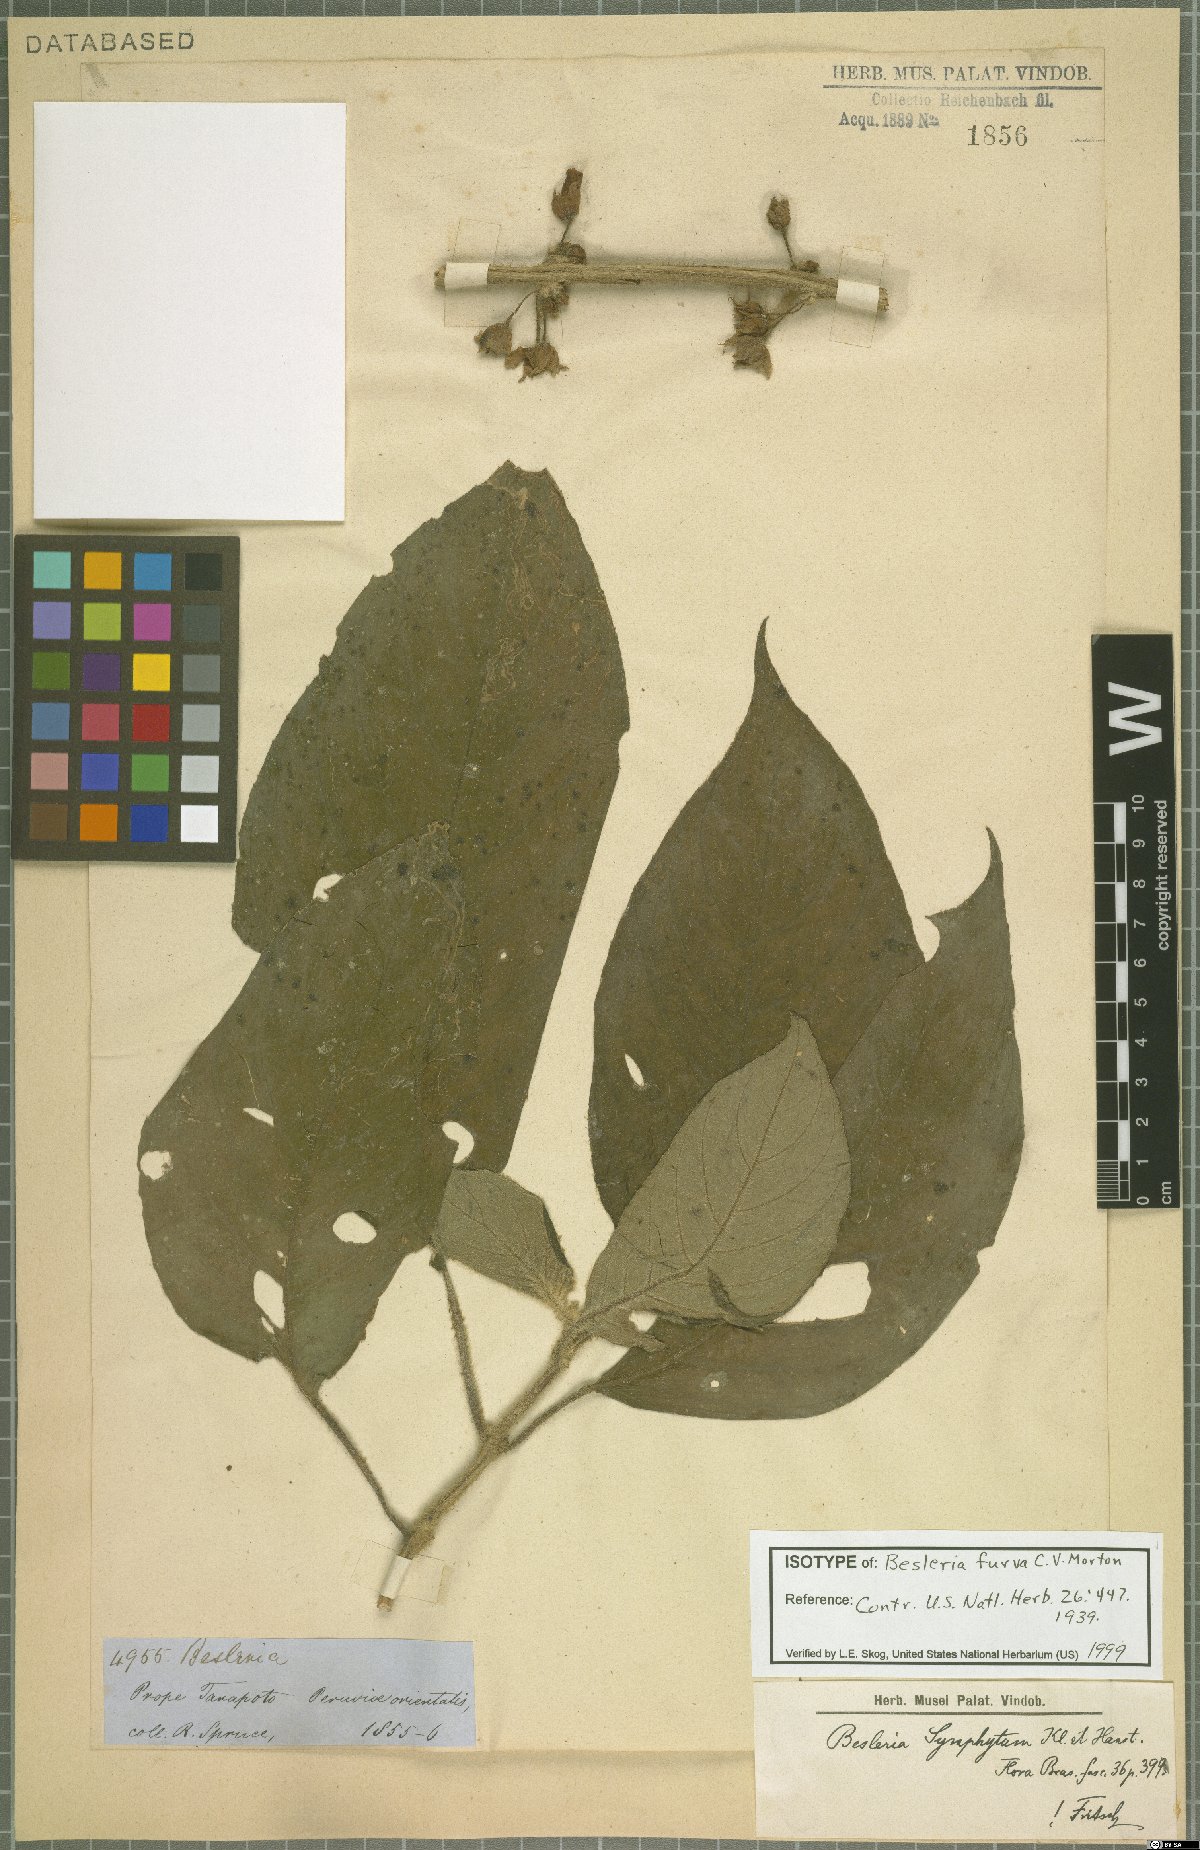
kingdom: Plantae
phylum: Tracheophyta
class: Magnoliopsida
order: Lamiales
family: Gesneriaceae
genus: Besleria
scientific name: Besleria symphytum
